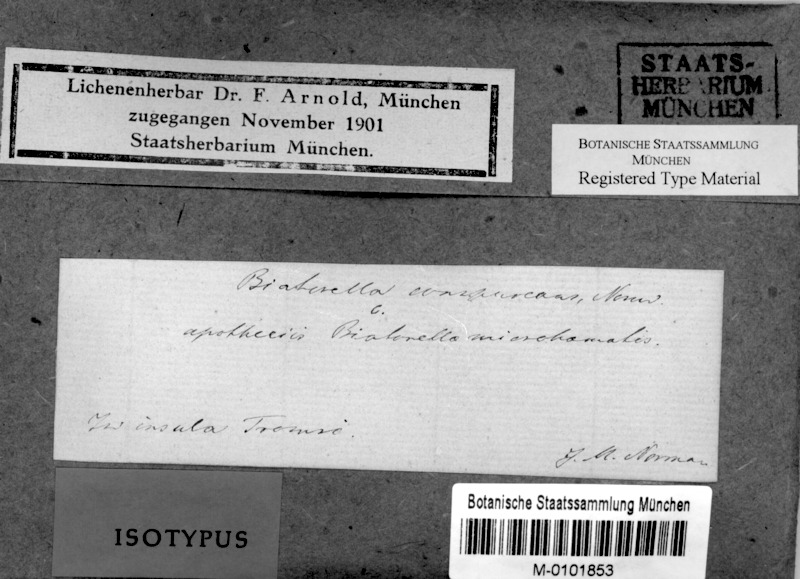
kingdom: Fungi
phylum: Ascomycota
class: Lecanoromycetes
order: Lecanorales
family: Biatorellaceae
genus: Biatorella
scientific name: Biatorella conspurcans
